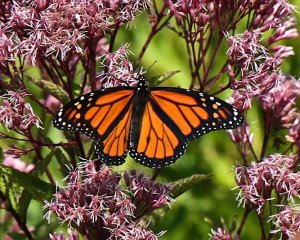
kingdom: Animalia
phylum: Arthropoda
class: Insecta
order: Lepidoptera
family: Nymphalidae
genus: Danaus
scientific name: Danaus plexippus
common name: Monarch
